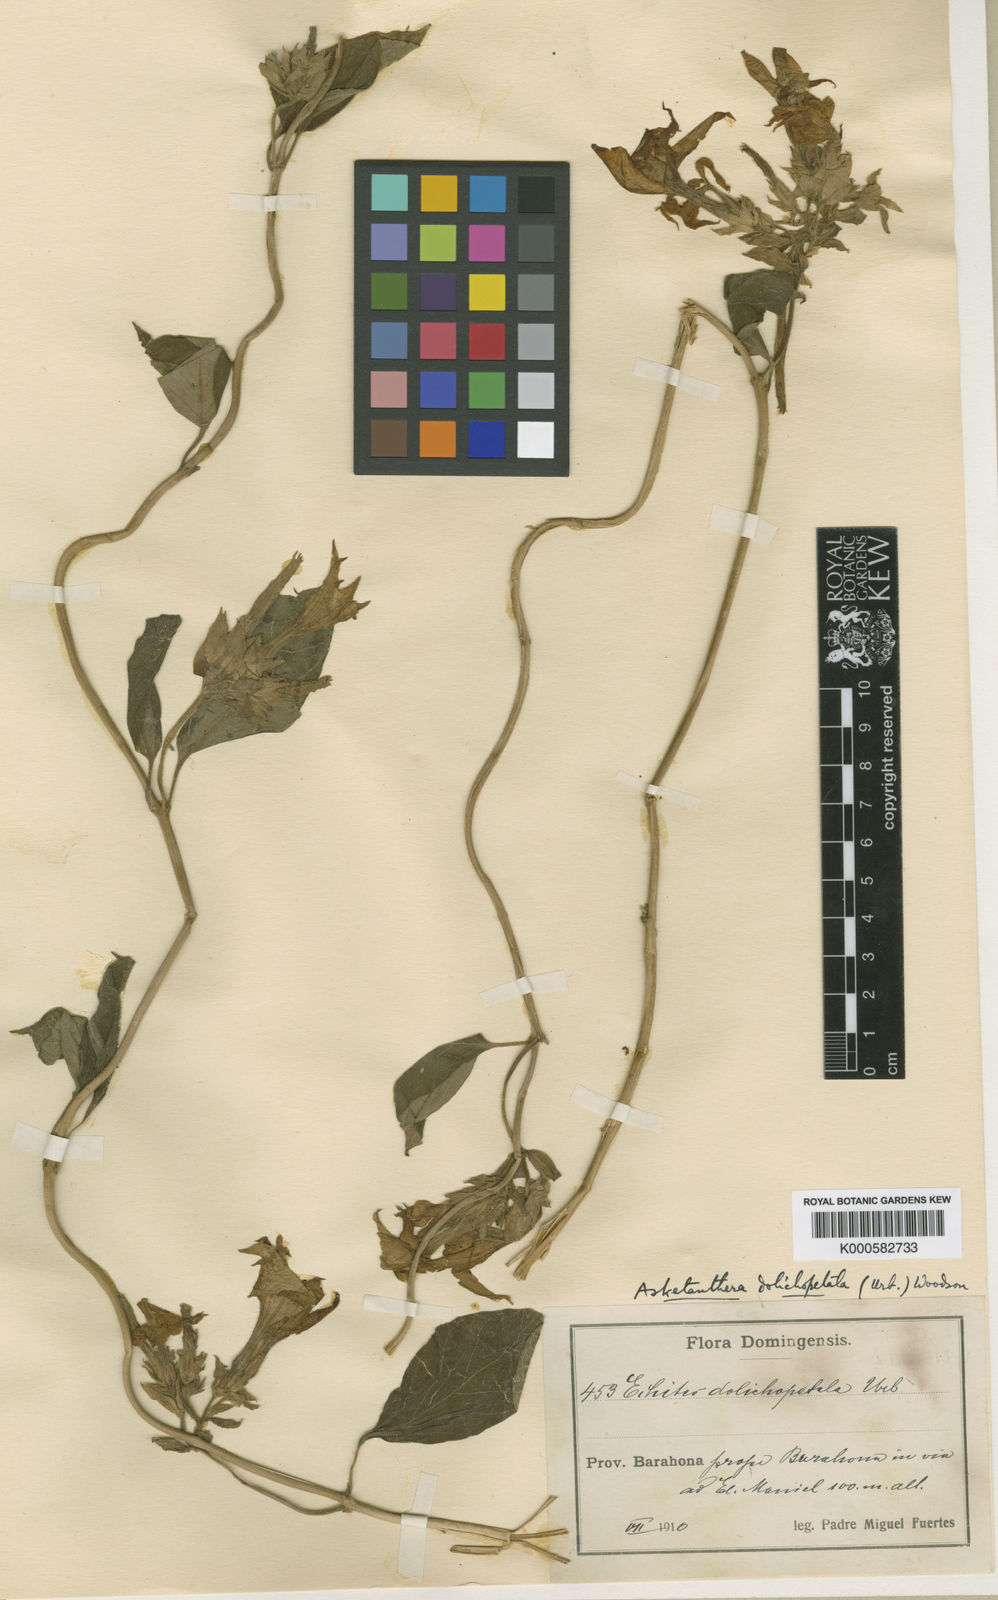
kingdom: Plantae
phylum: Tracheophyta
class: Magnoliopsida
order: Gentianales
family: Apocynaceae
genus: Asketanthera
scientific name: Asketanthera dolichopetala
